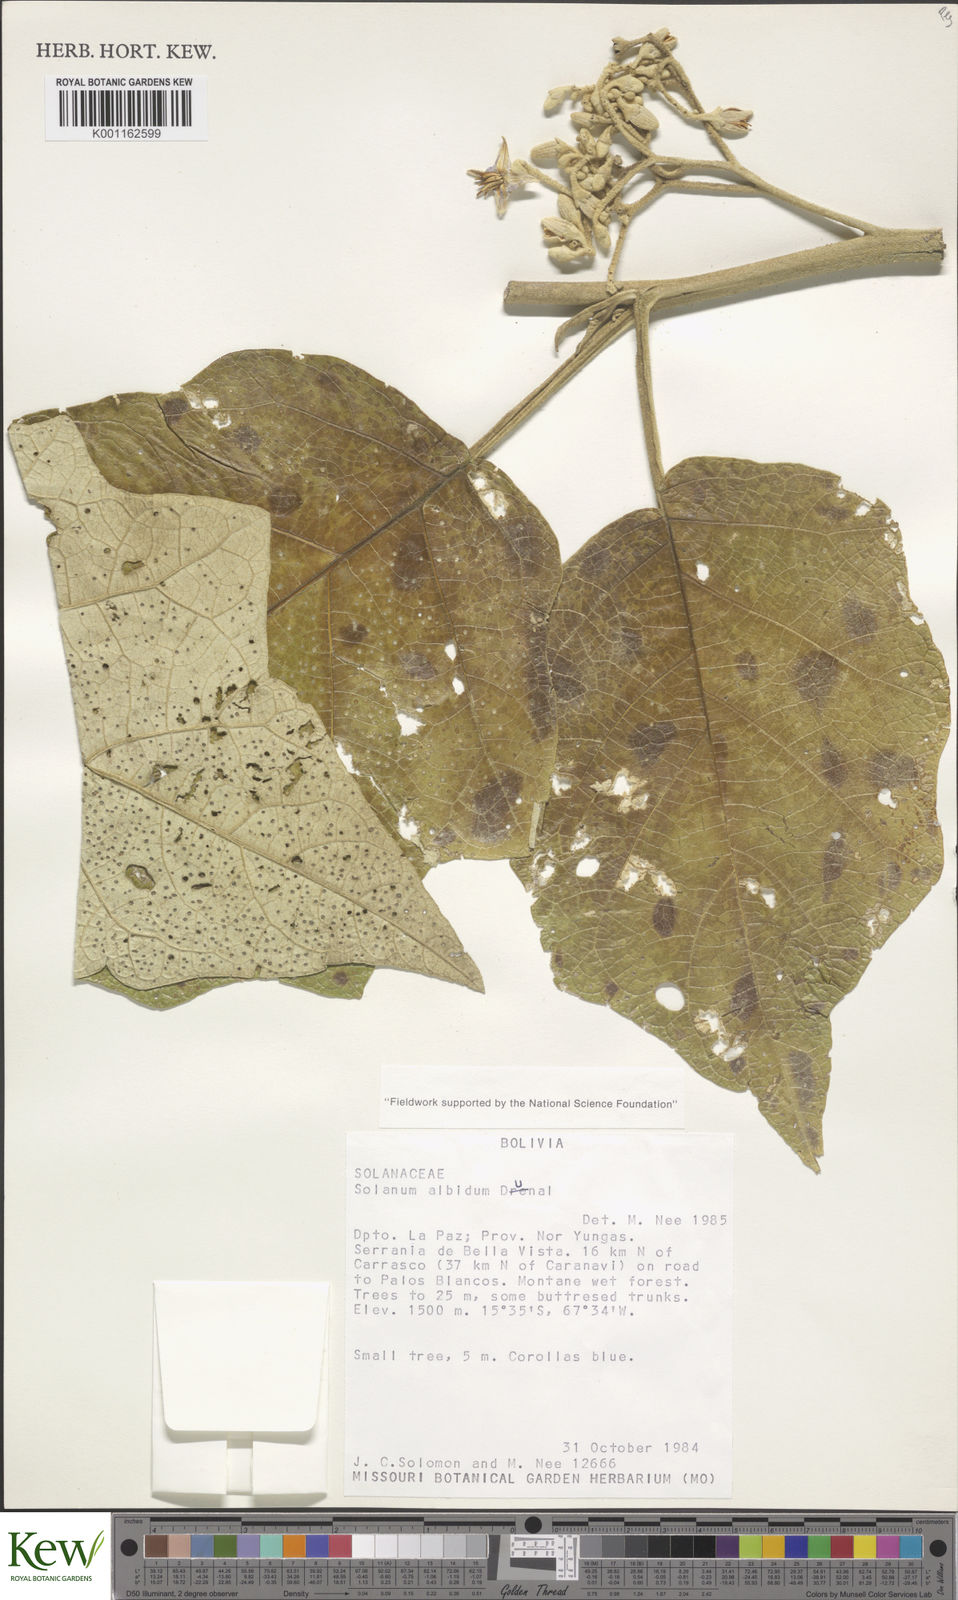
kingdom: Plantae
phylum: Tracheophyta
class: Magnoliopsida
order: Solanales
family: Solanaceae
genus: Solanum
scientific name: Solanum albidum
